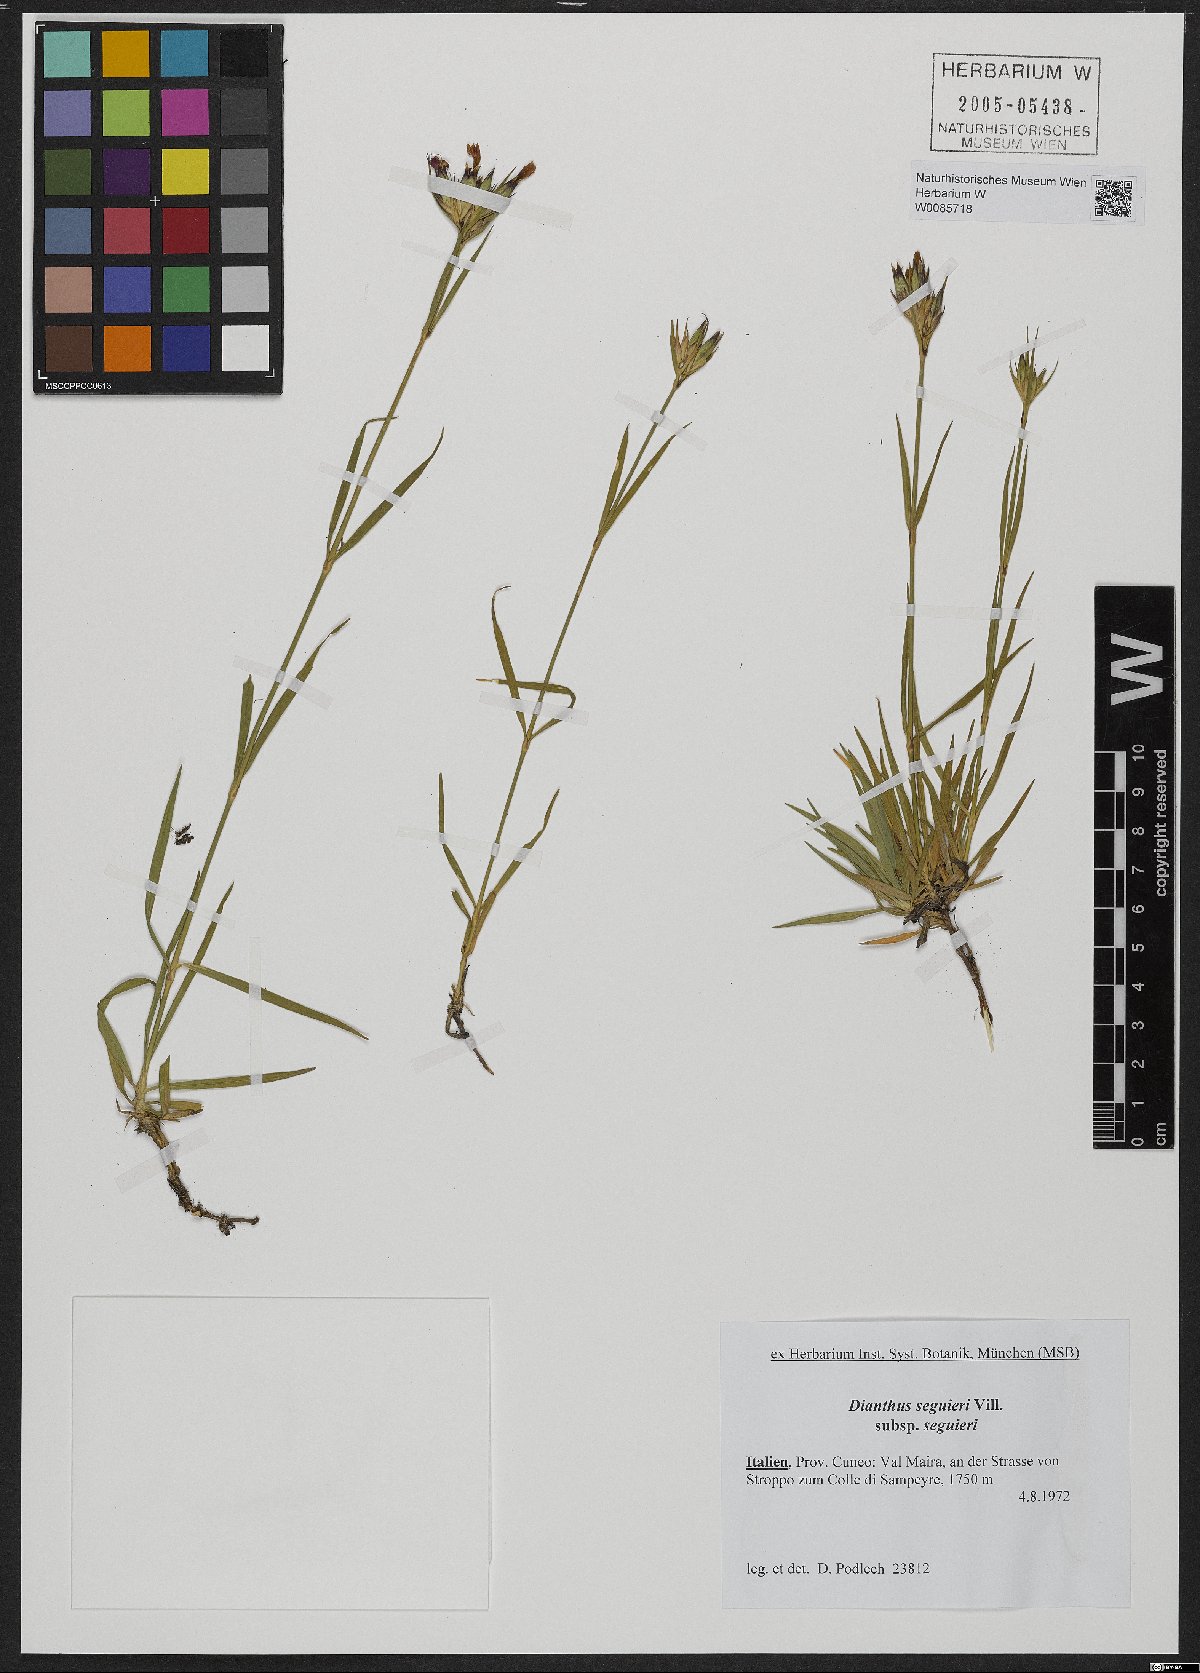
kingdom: Plantae
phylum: Tracheophyta
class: Magnoliopsida
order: Caryophyllales
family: Caryophyllaceae
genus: Dianthus
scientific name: Dianthus seguieri
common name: Ragged pink
